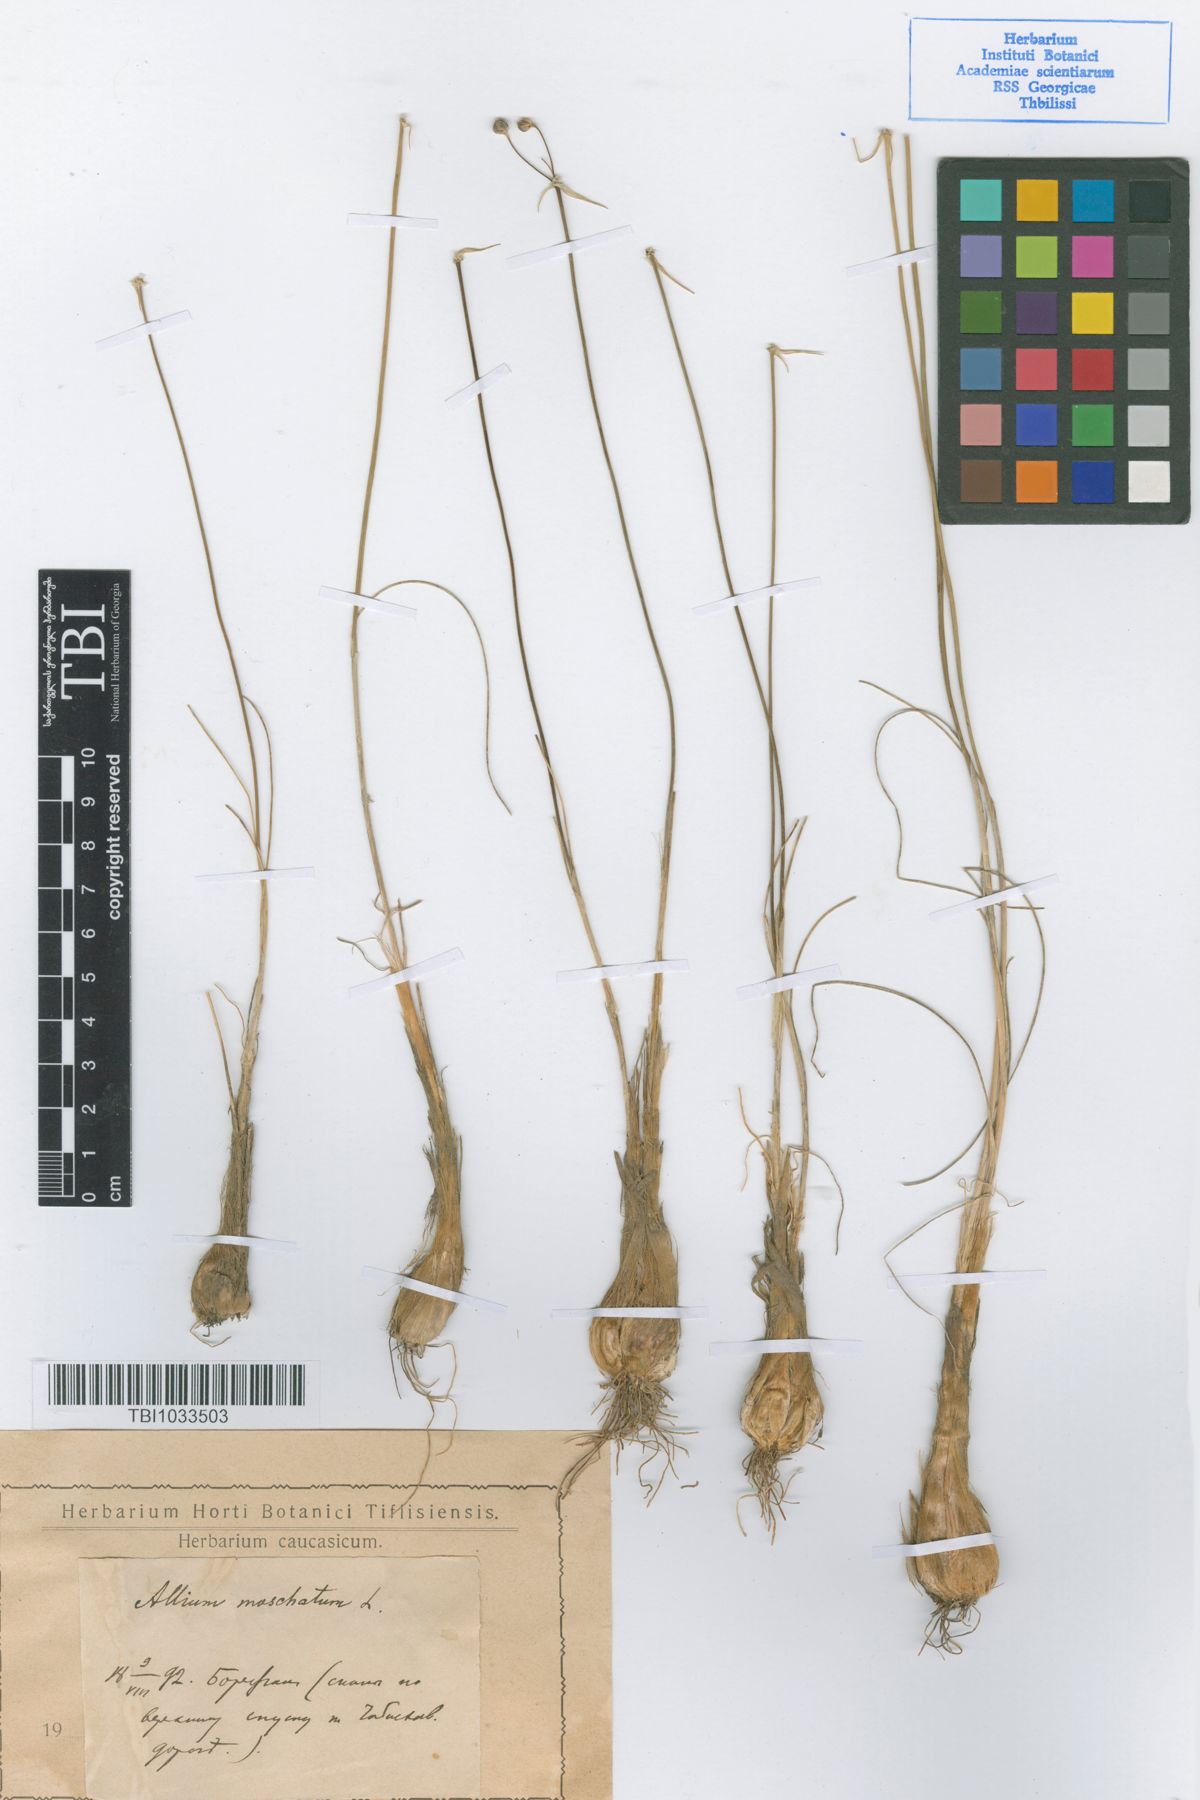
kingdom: Plantae
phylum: Tracheophyta
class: Liliopsida
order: Asparagales
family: Amaryllidaceae
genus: Allium
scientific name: Allium moschatum
